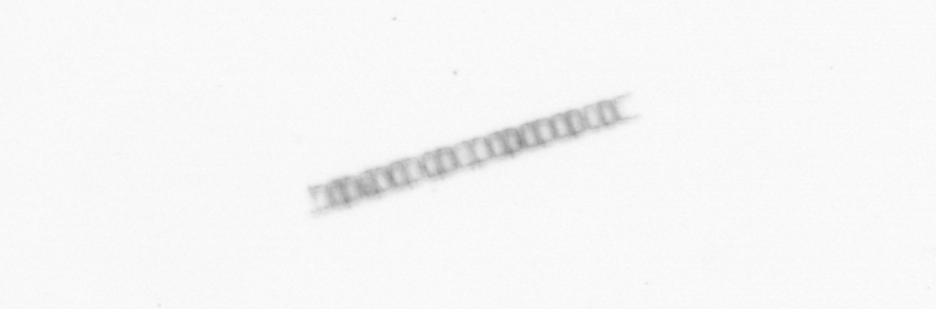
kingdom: Chromista
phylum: Ochrophyta
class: Bacillariophyceae
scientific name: Bacillariophyceae
